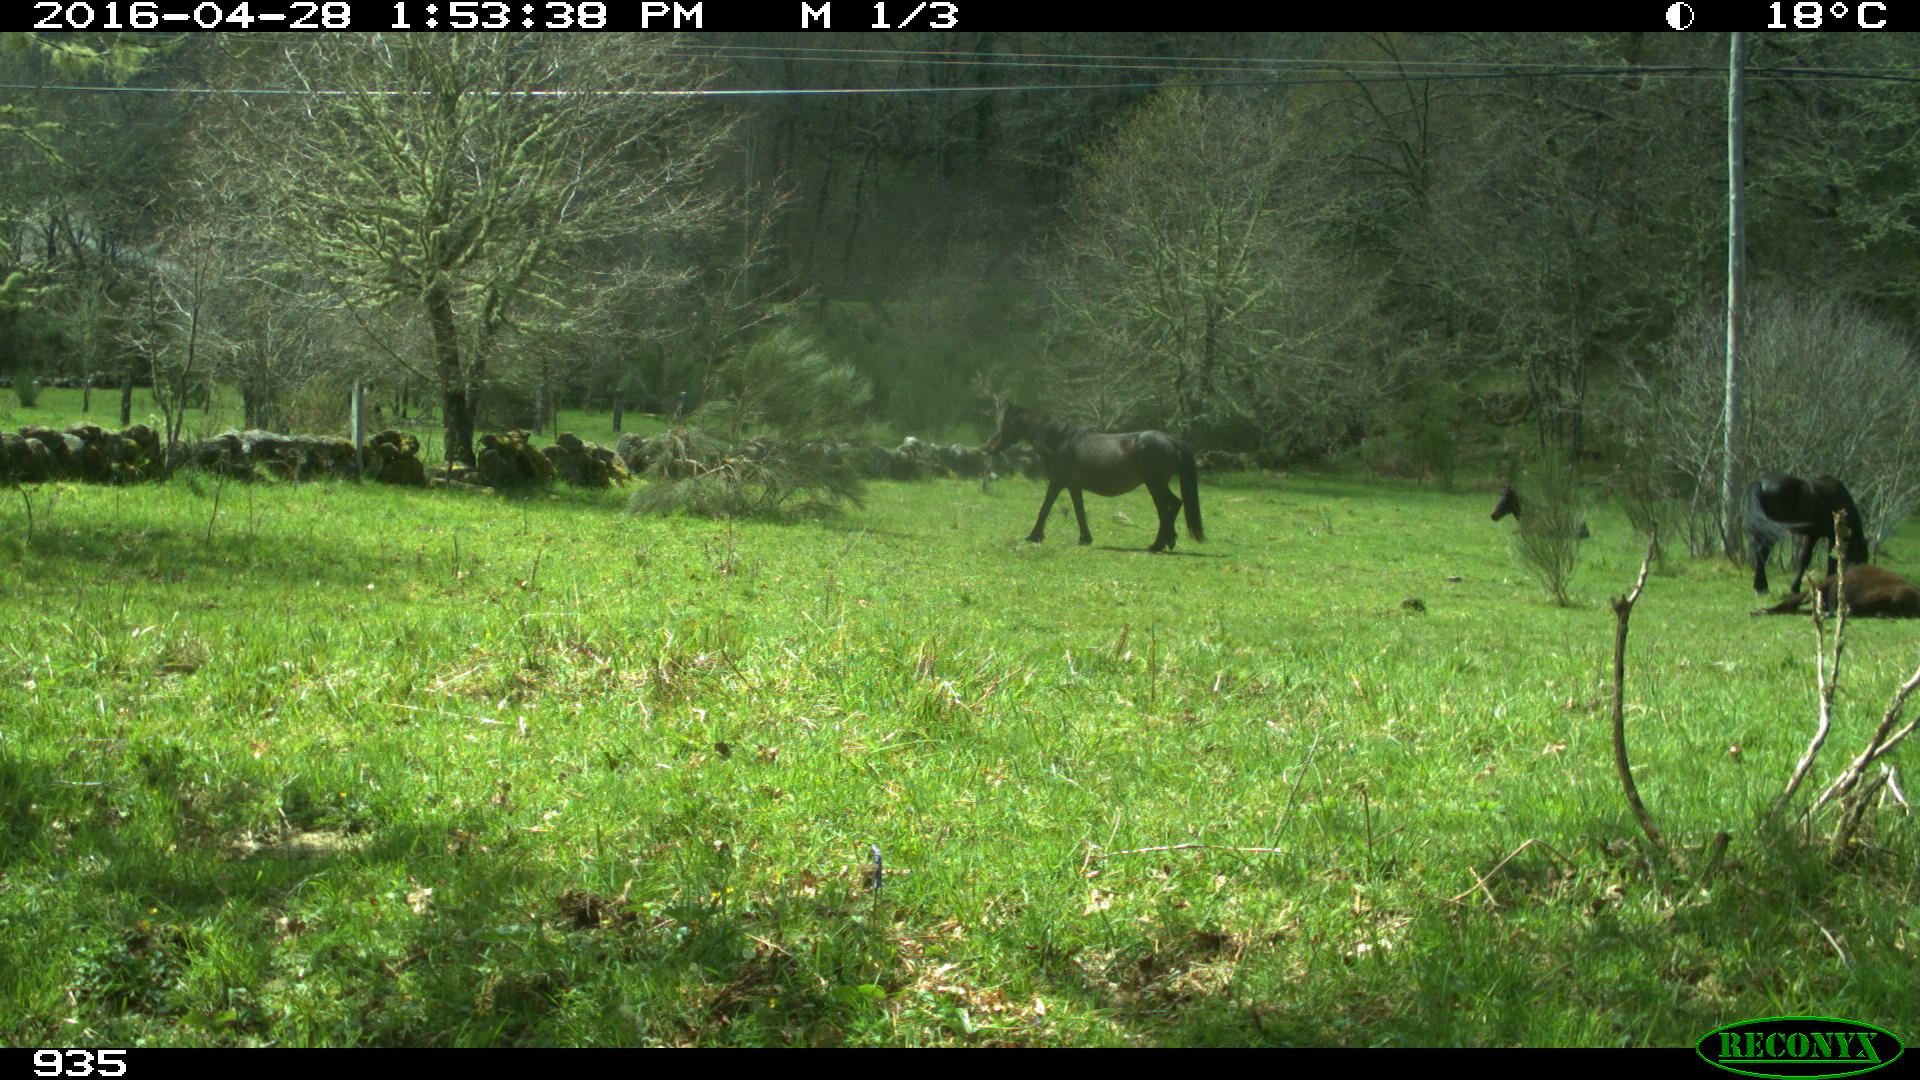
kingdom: Animalia
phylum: Chordata
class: Mammalia
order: Perissodactyla
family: Equidae
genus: Equus
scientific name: Equus caballus
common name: Horse
